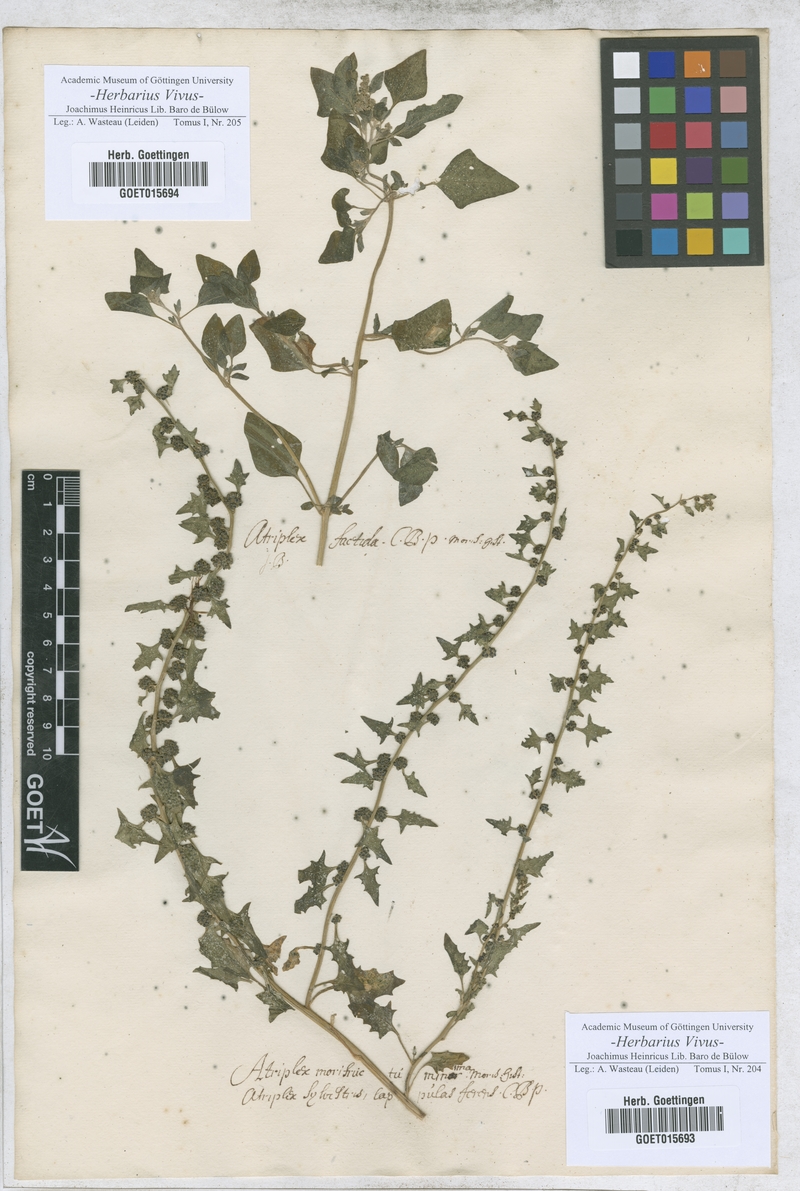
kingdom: Plantae
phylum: Tracheophyta
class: Magnoliopsida
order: Caryophyllales
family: Amaranthaceae
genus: Atriplex
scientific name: Atriplex
